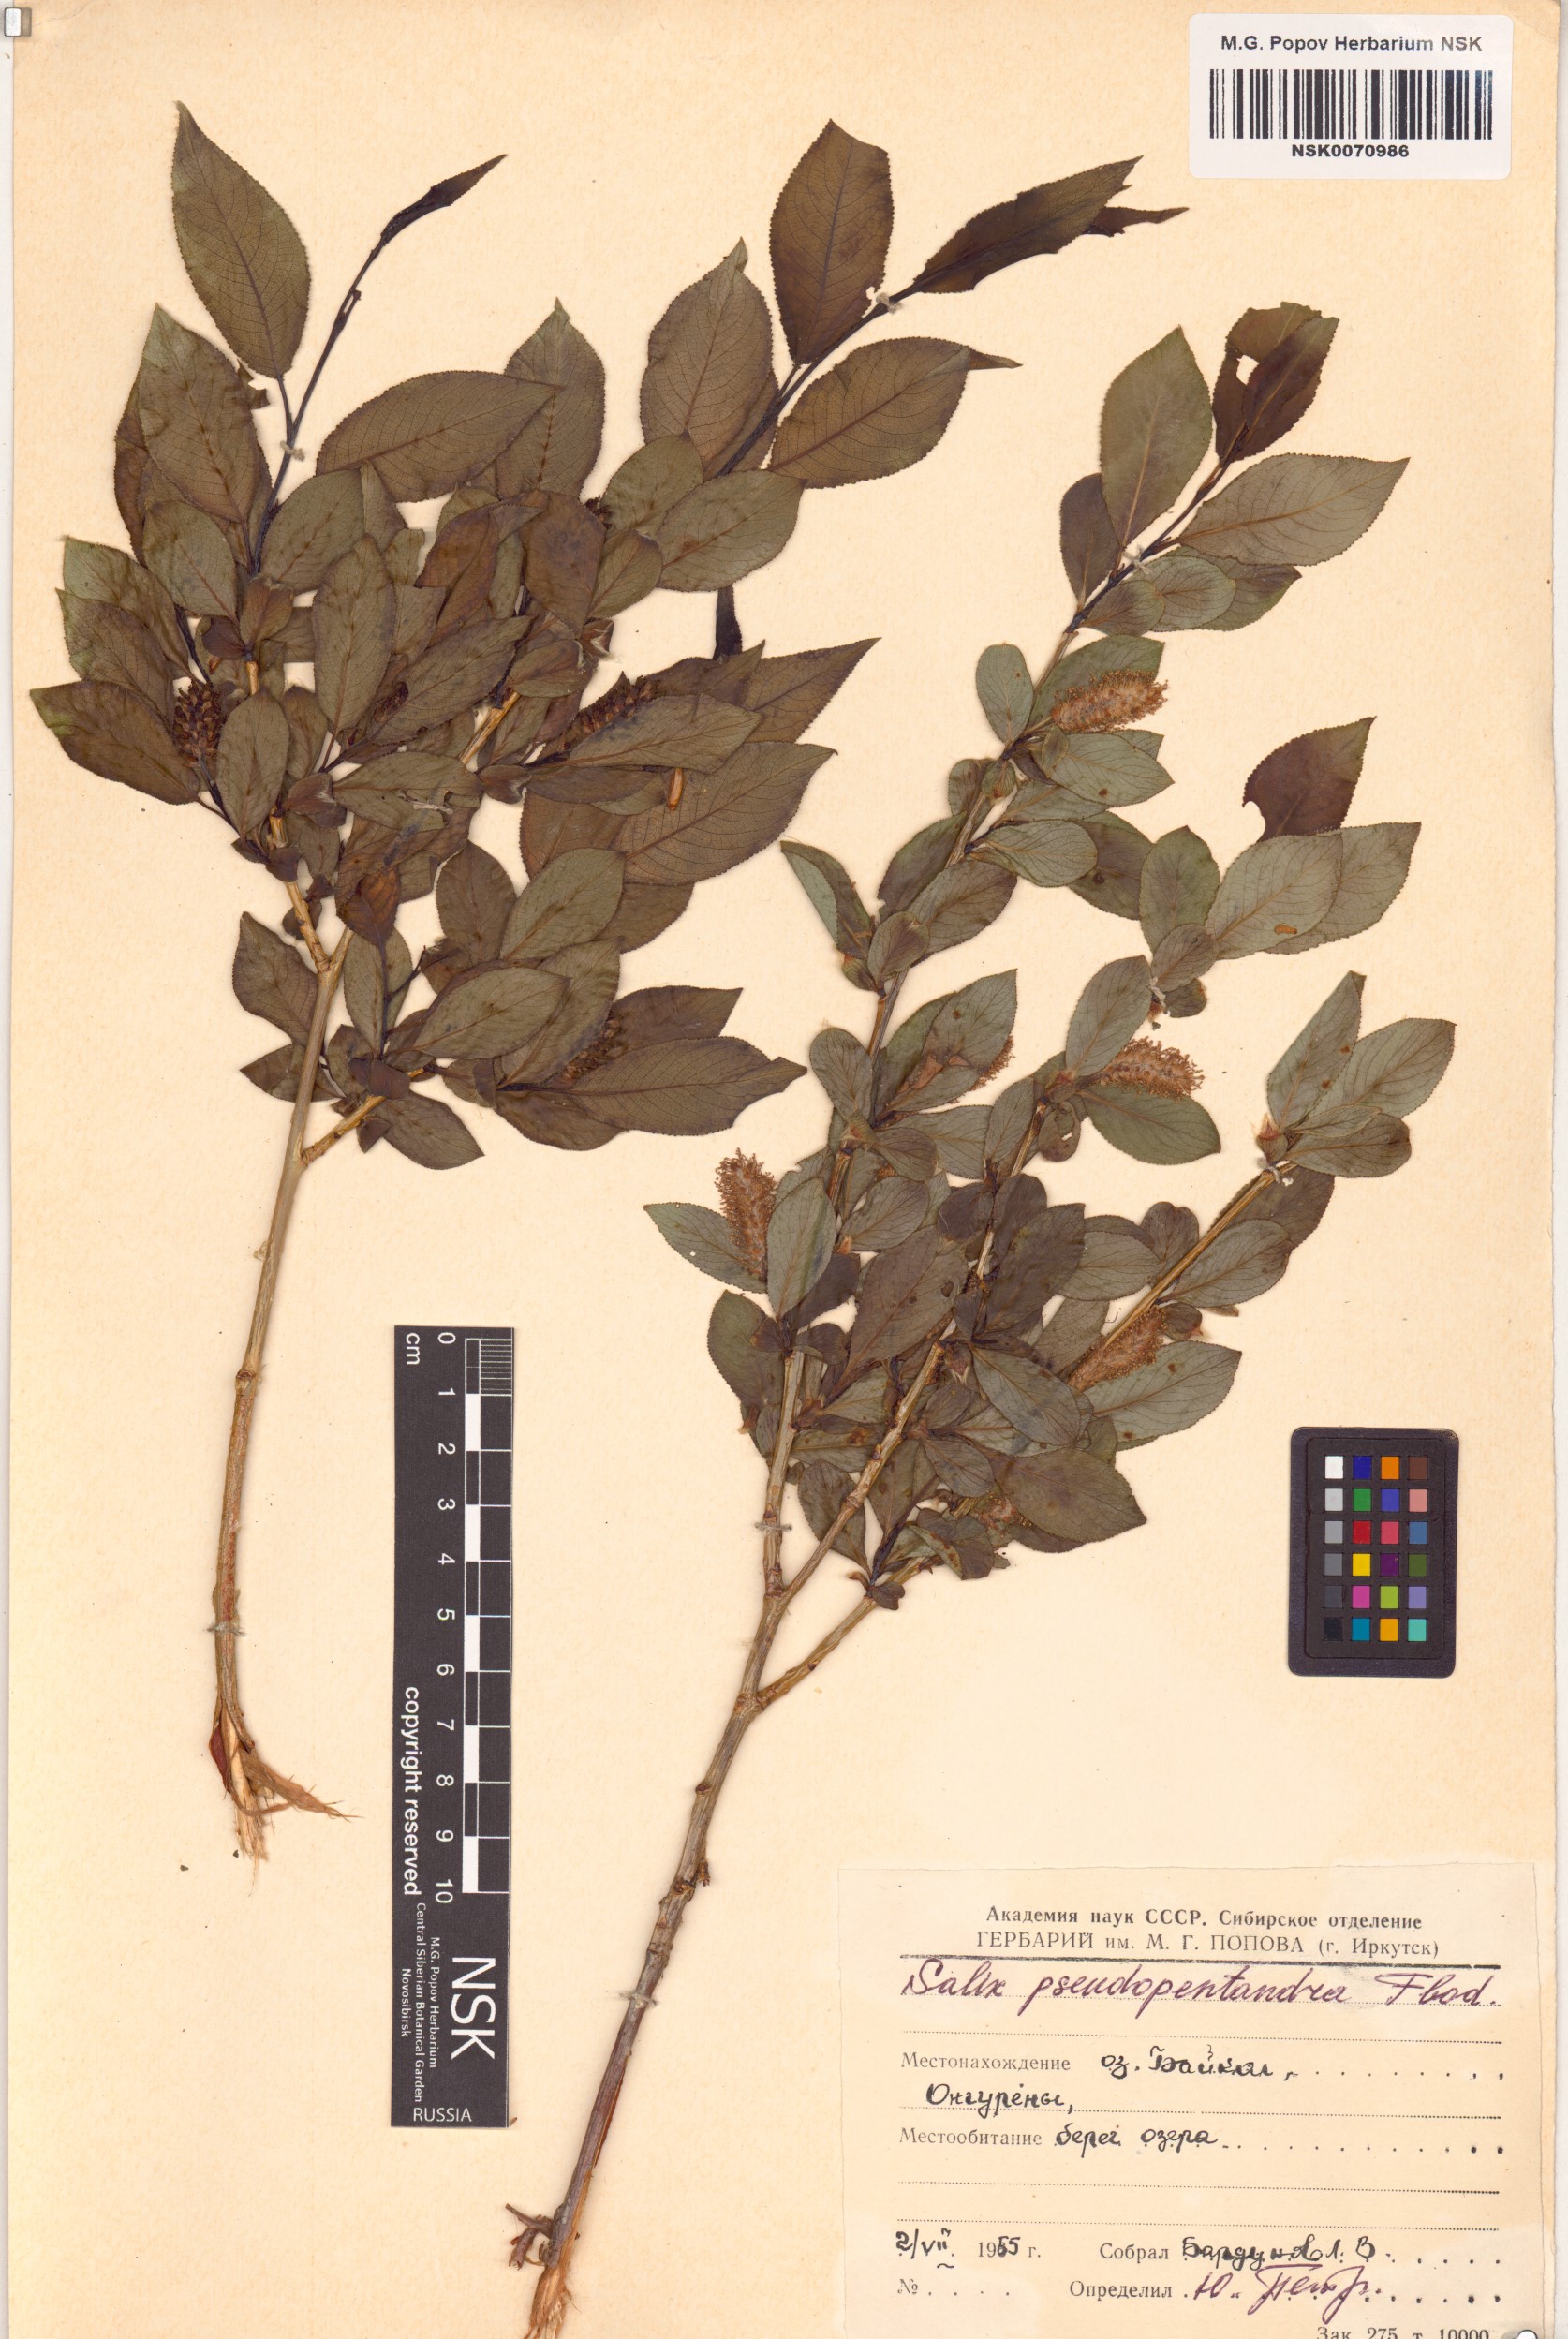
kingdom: Plantae
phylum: Tracheophyta
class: Magnoliopsida
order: Malpighiales
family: Salicaceae
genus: Salix
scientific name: Salix pseudopentandra
